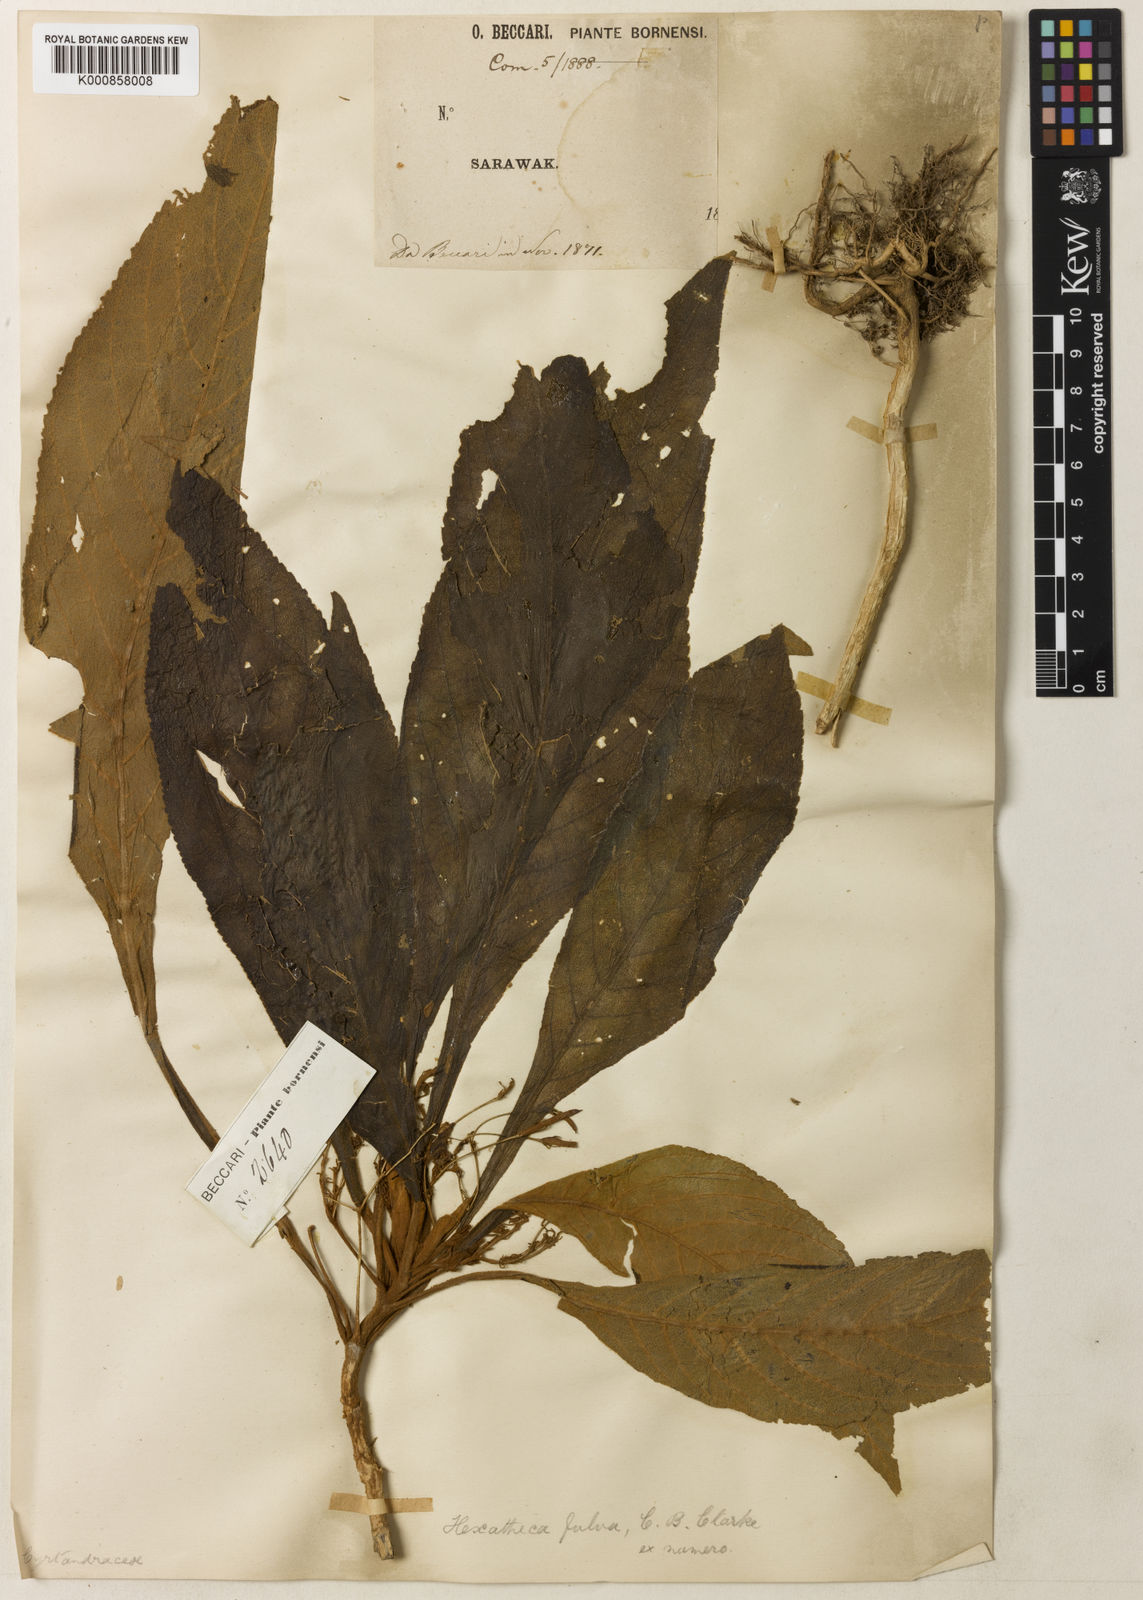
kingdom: Plantae
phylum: Tracheophyta
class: Magnoliopsida
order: Lamiales
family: Gesneriaceae
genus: Hexatheca
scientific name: Hexatheca fulva
